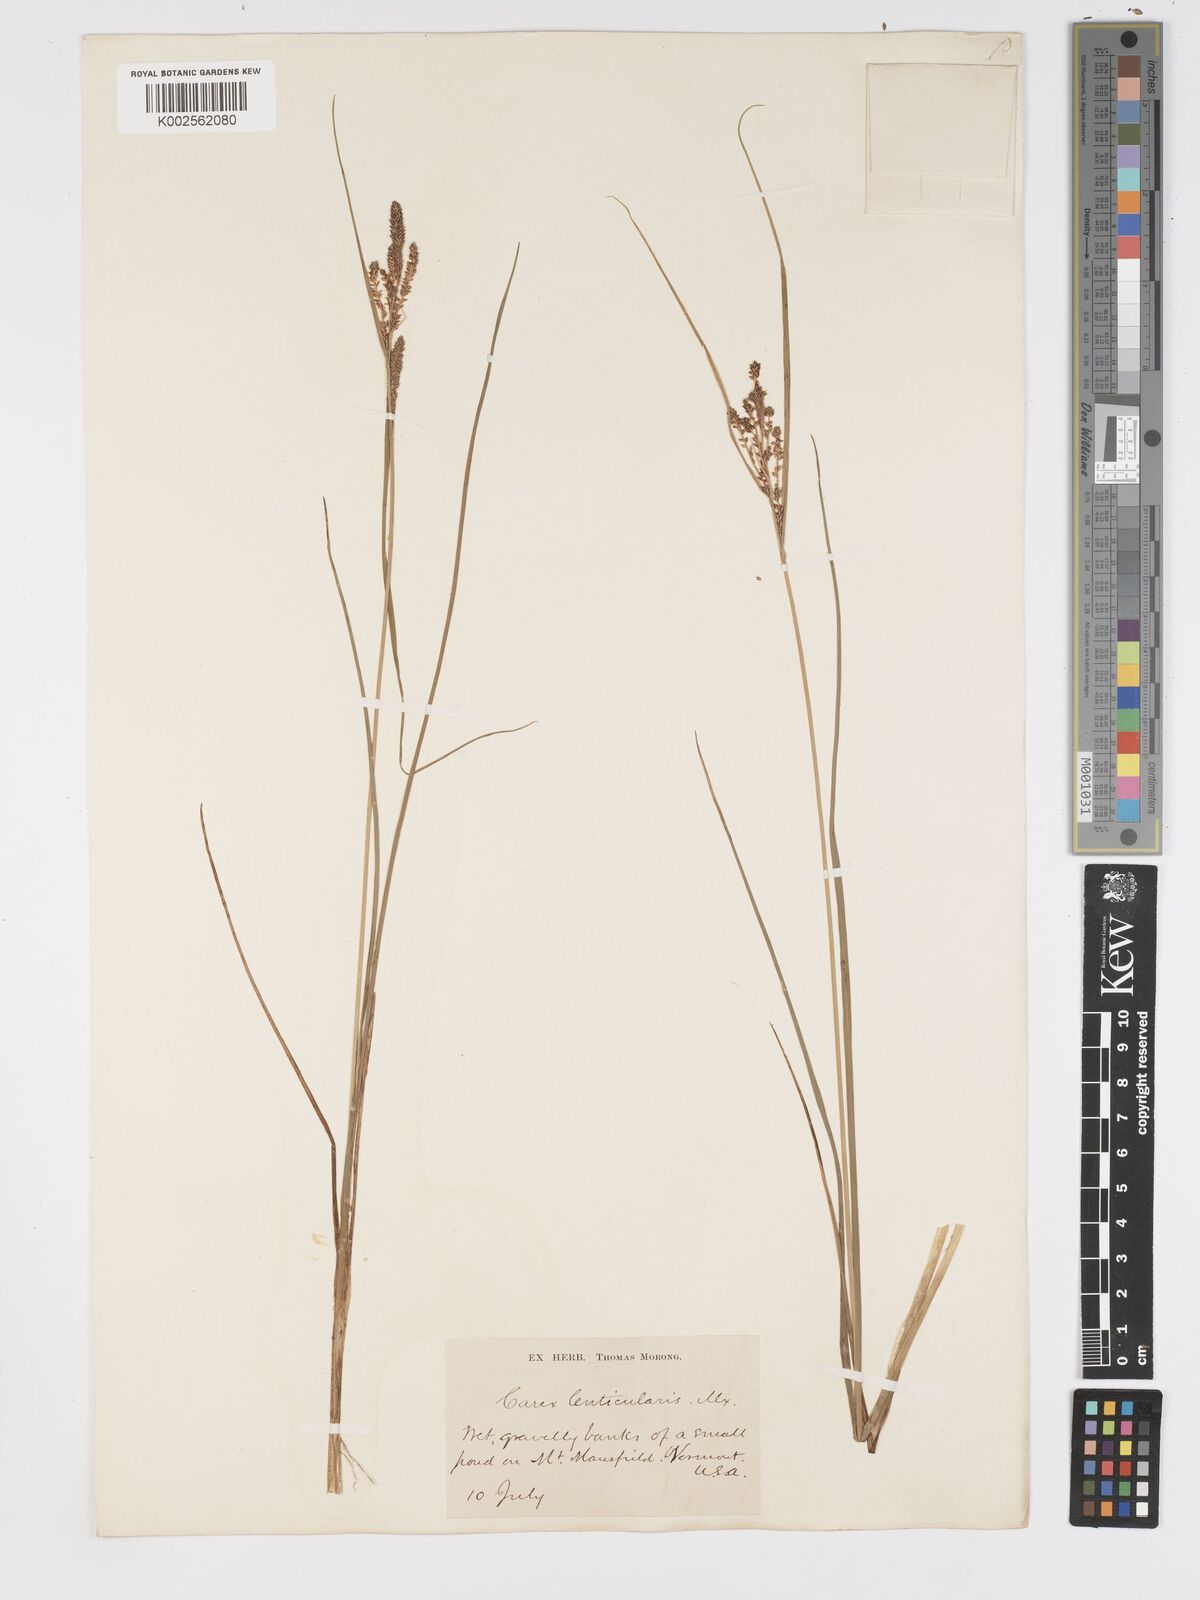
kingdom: Plantae
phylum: Tracheophyta
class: Liliopsida
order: Poales
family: Cyperaceae
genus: Carex
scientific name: Carex lenticularis
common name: Lakeshore sedge
